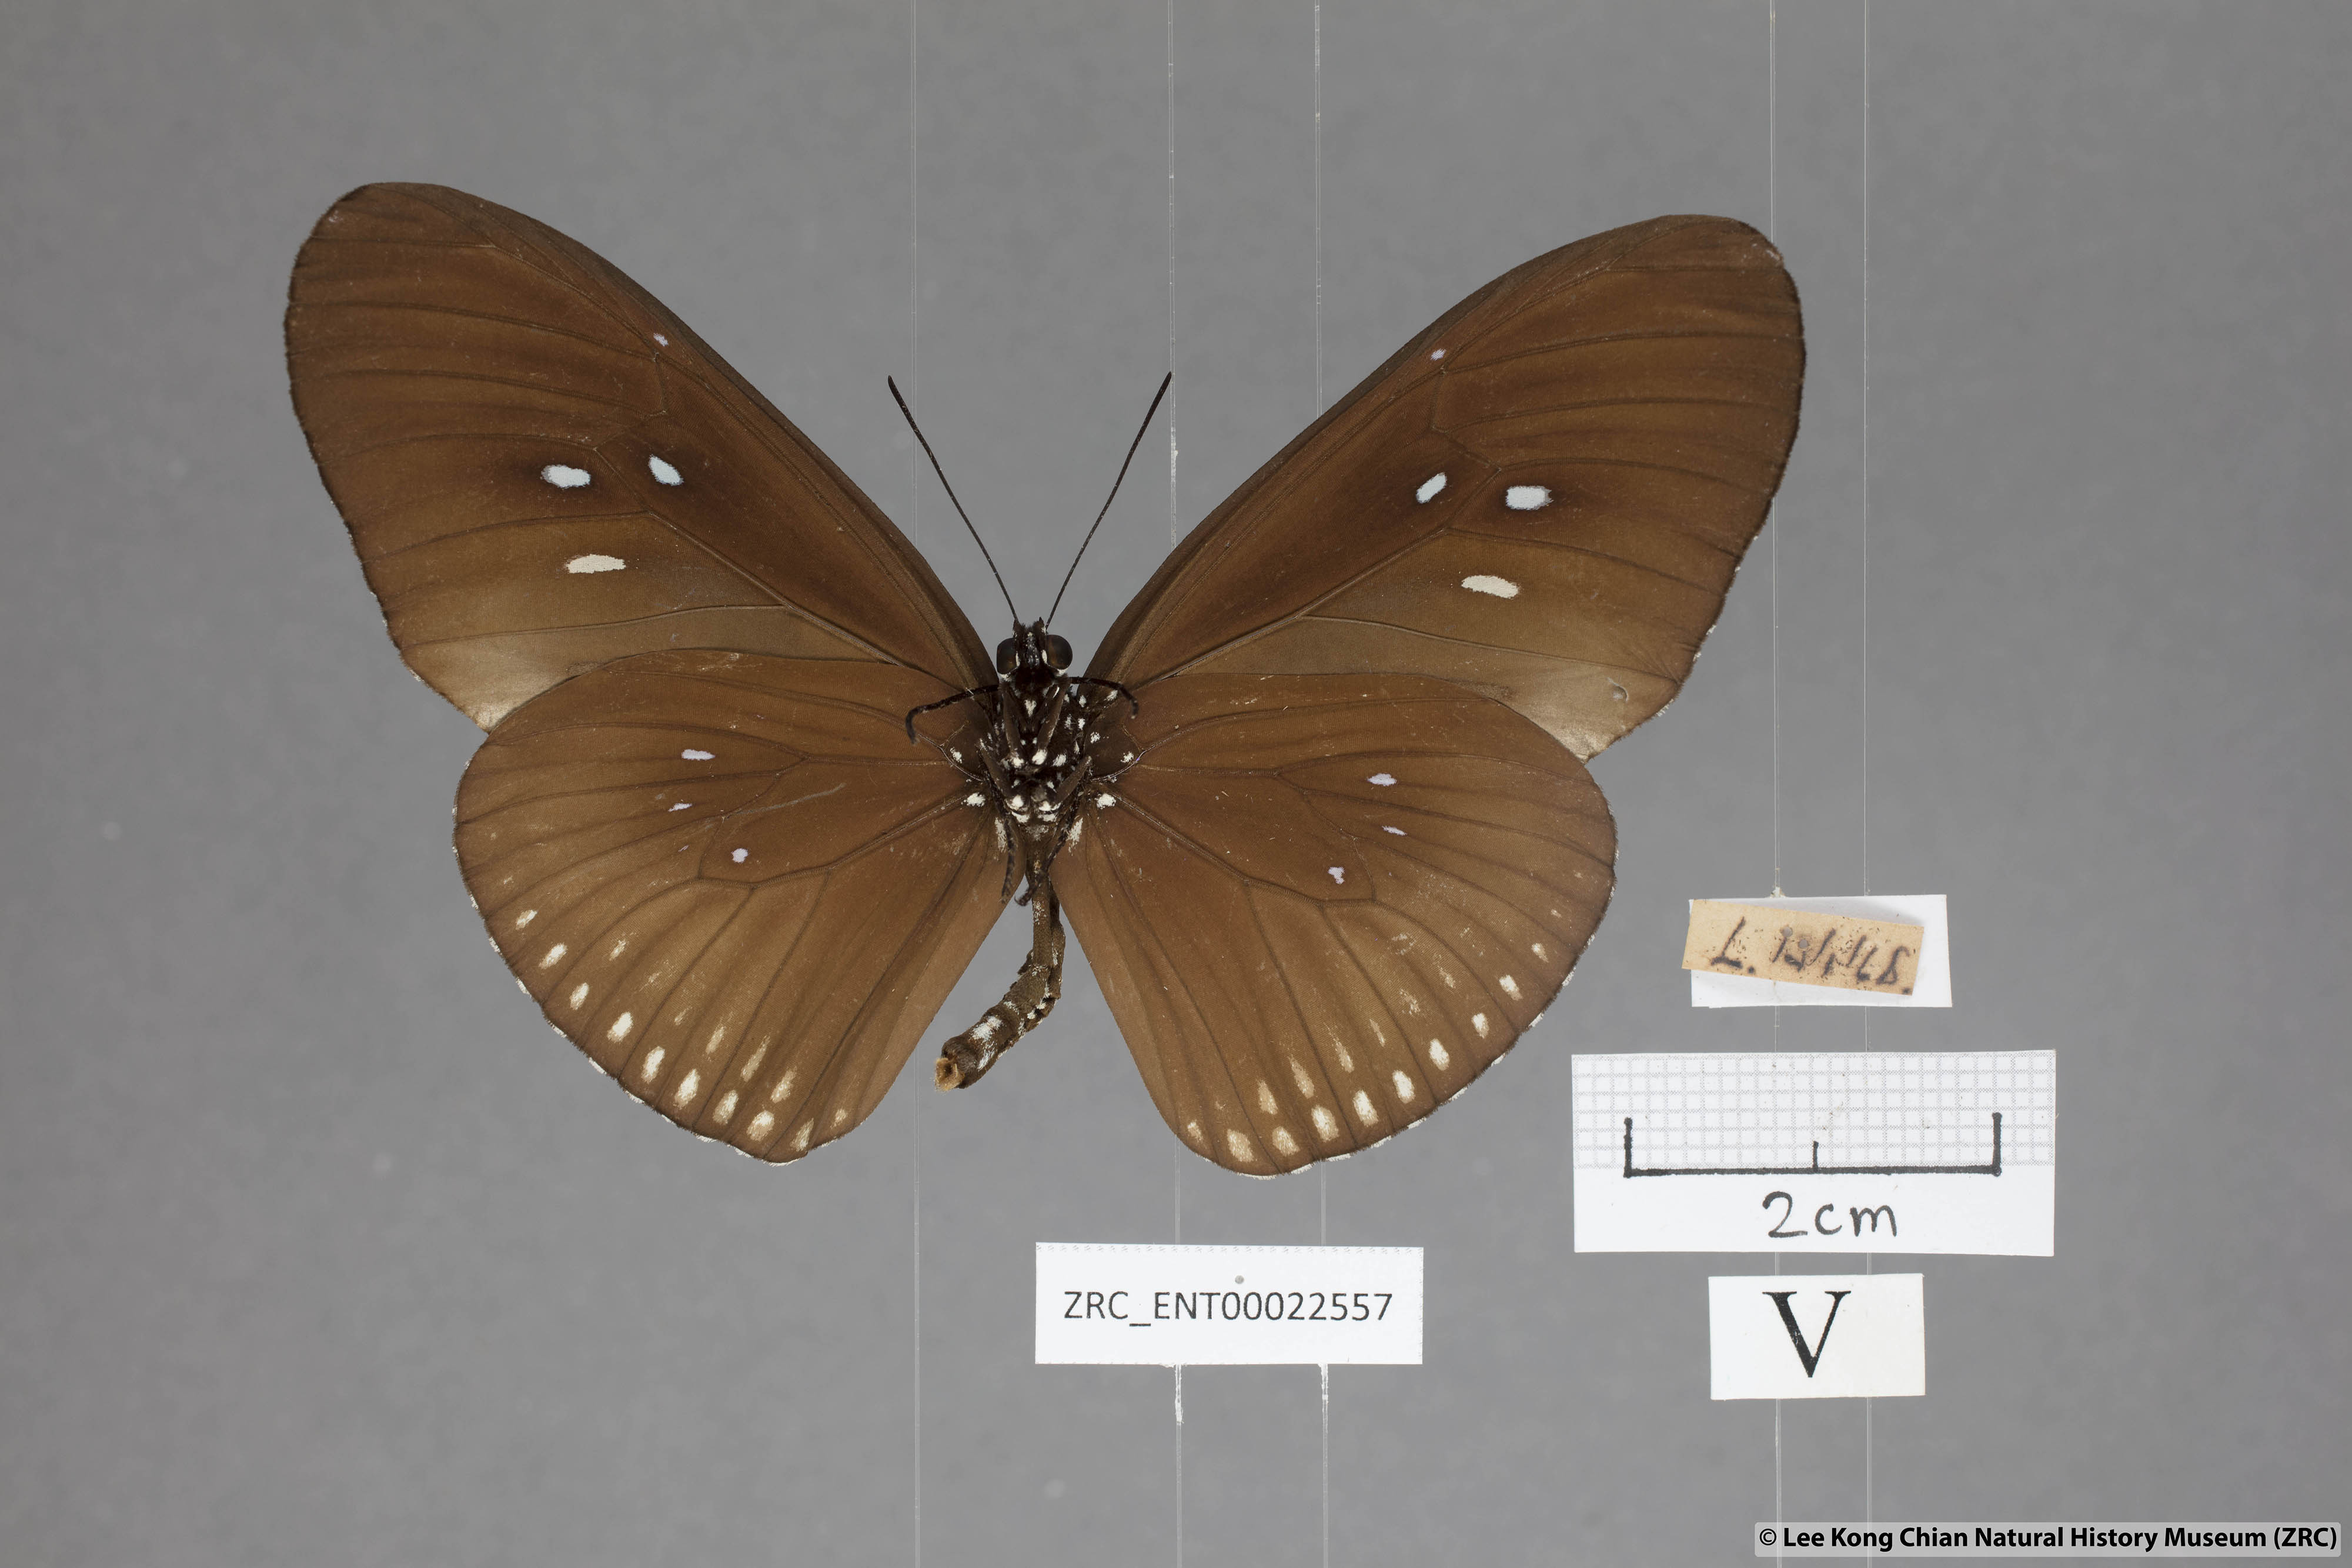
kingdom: Animalia
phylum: Arthropoda
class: Insecta
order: Lepidoptera
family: Nymphalidae
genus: Euploea
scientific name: Euploea eyndhovii
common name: Striped black crow butterfly
